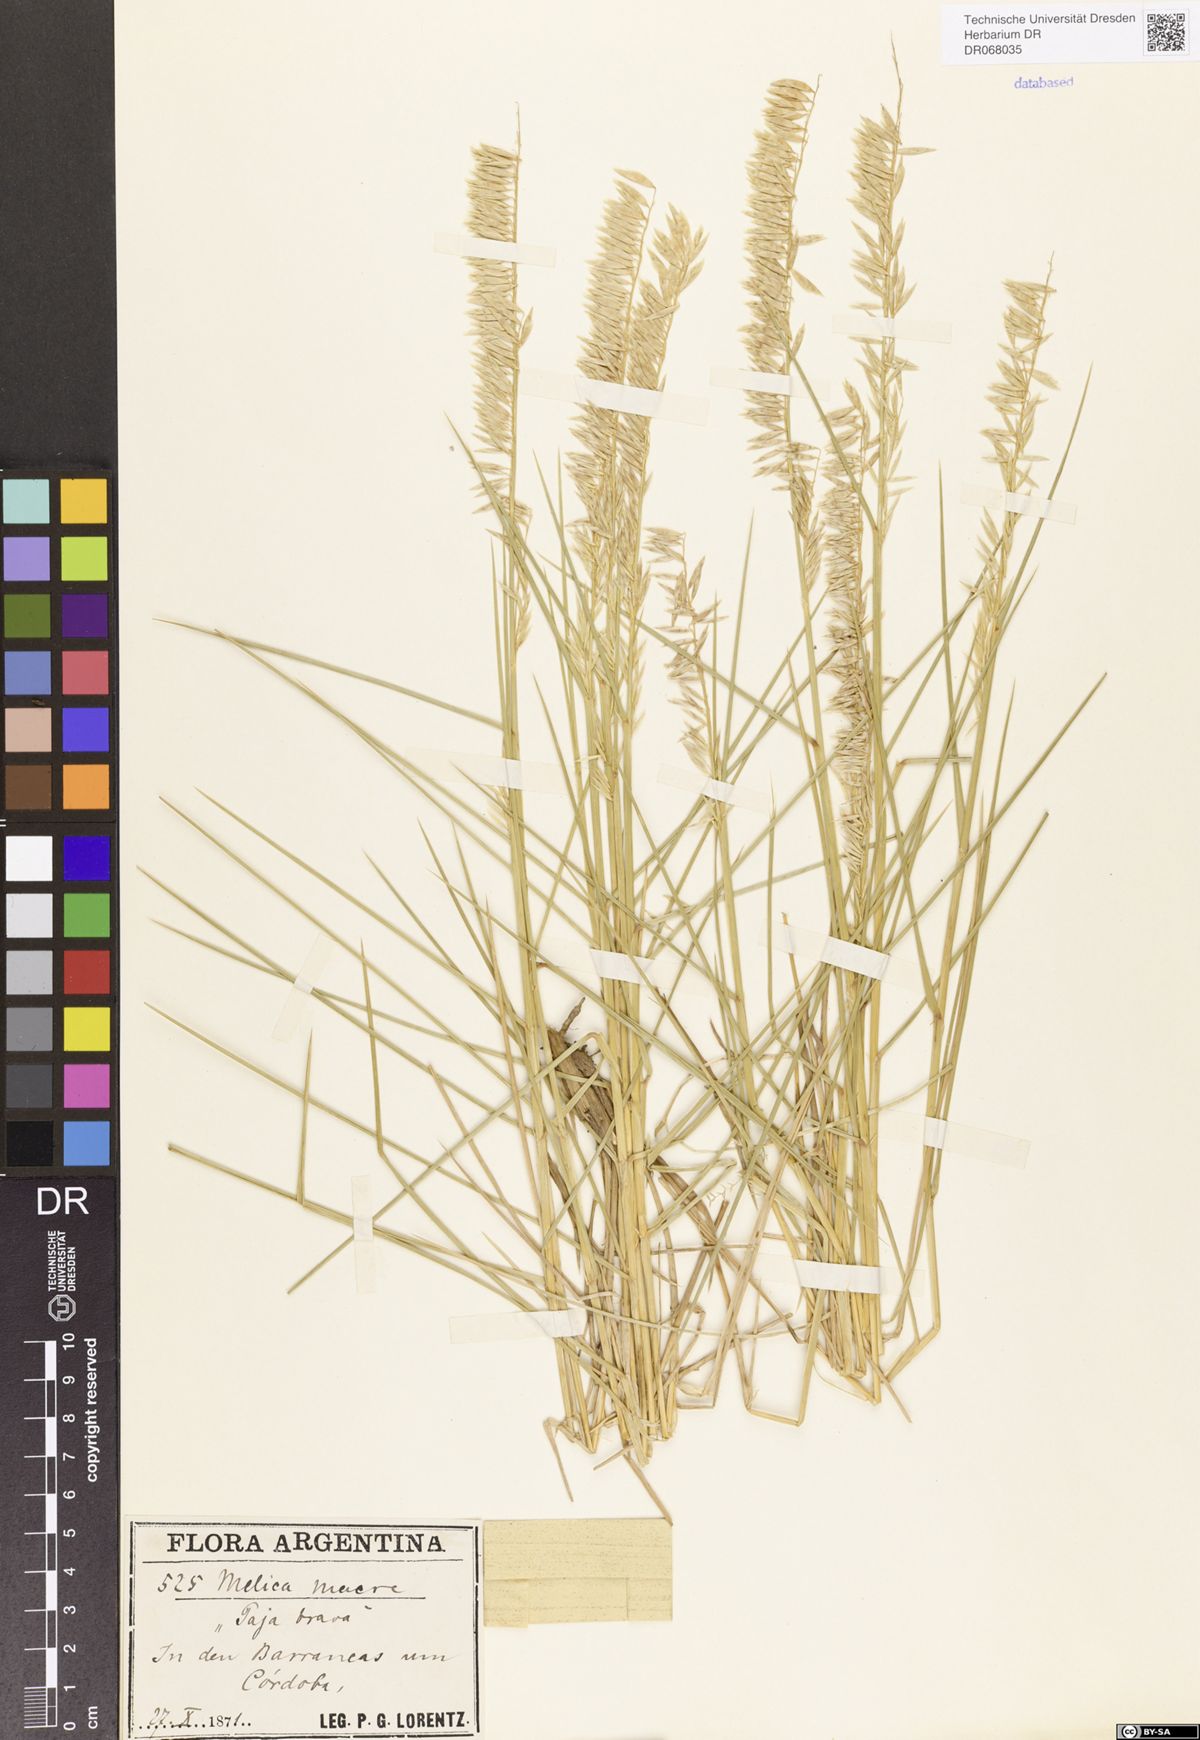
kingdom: Plantae
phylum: Tracheophyta
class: Liliopsida
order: Poales
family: Poaceae
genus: Melica
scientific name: Melica macra
